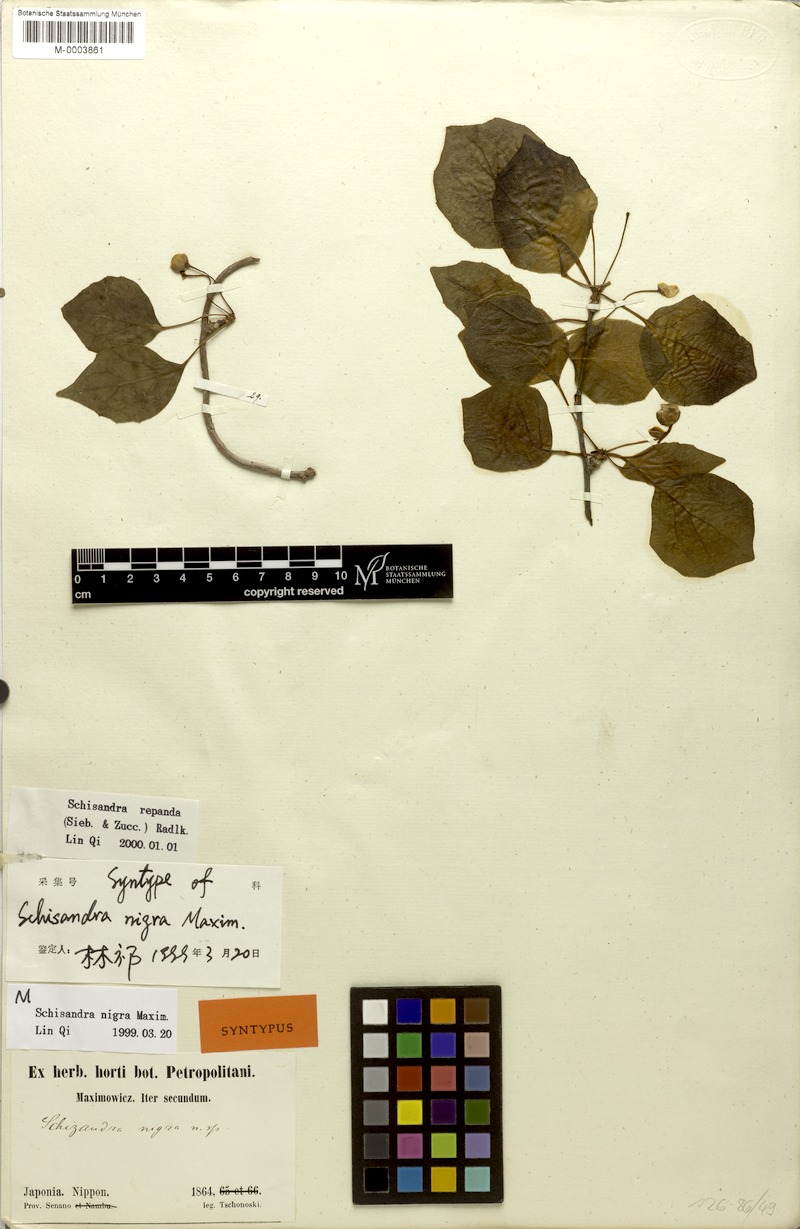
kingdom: Plantae
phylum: Tracheophyta
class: Magnoliopsida
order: Austrobaileyales
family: Schisandraceae
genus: Schisandra
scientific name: Schisandra repanda
